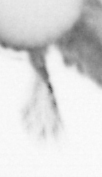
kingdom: Animalia
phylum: Annelida
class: Polychaeta
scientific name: Polychaeta
